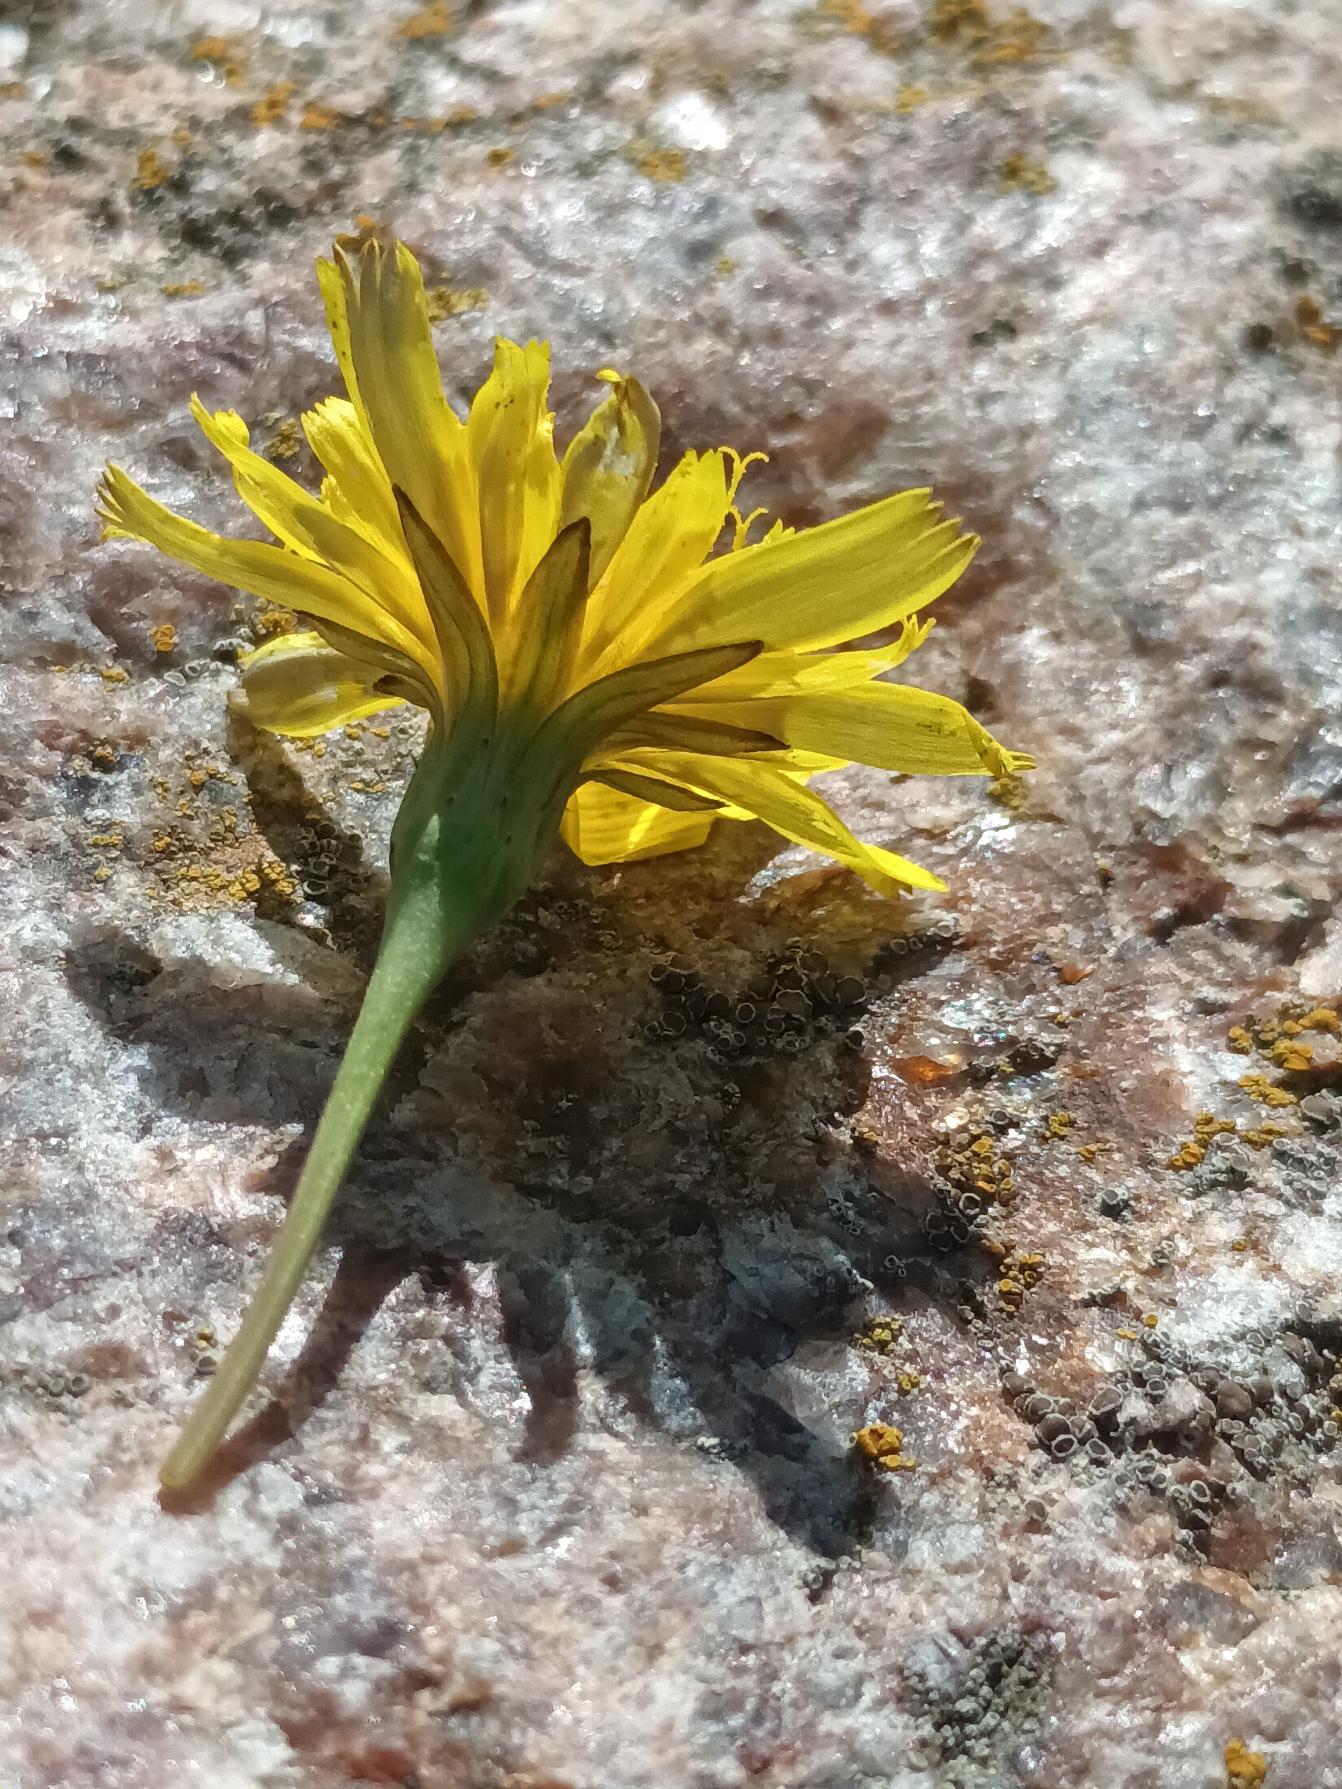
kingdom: Plantae
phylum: Tracheophyta
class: Magnoliopsida
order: Asterales
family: Asteraceae
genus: Thrincia
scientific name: Thrincia saxatilis
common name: Hundesalat
